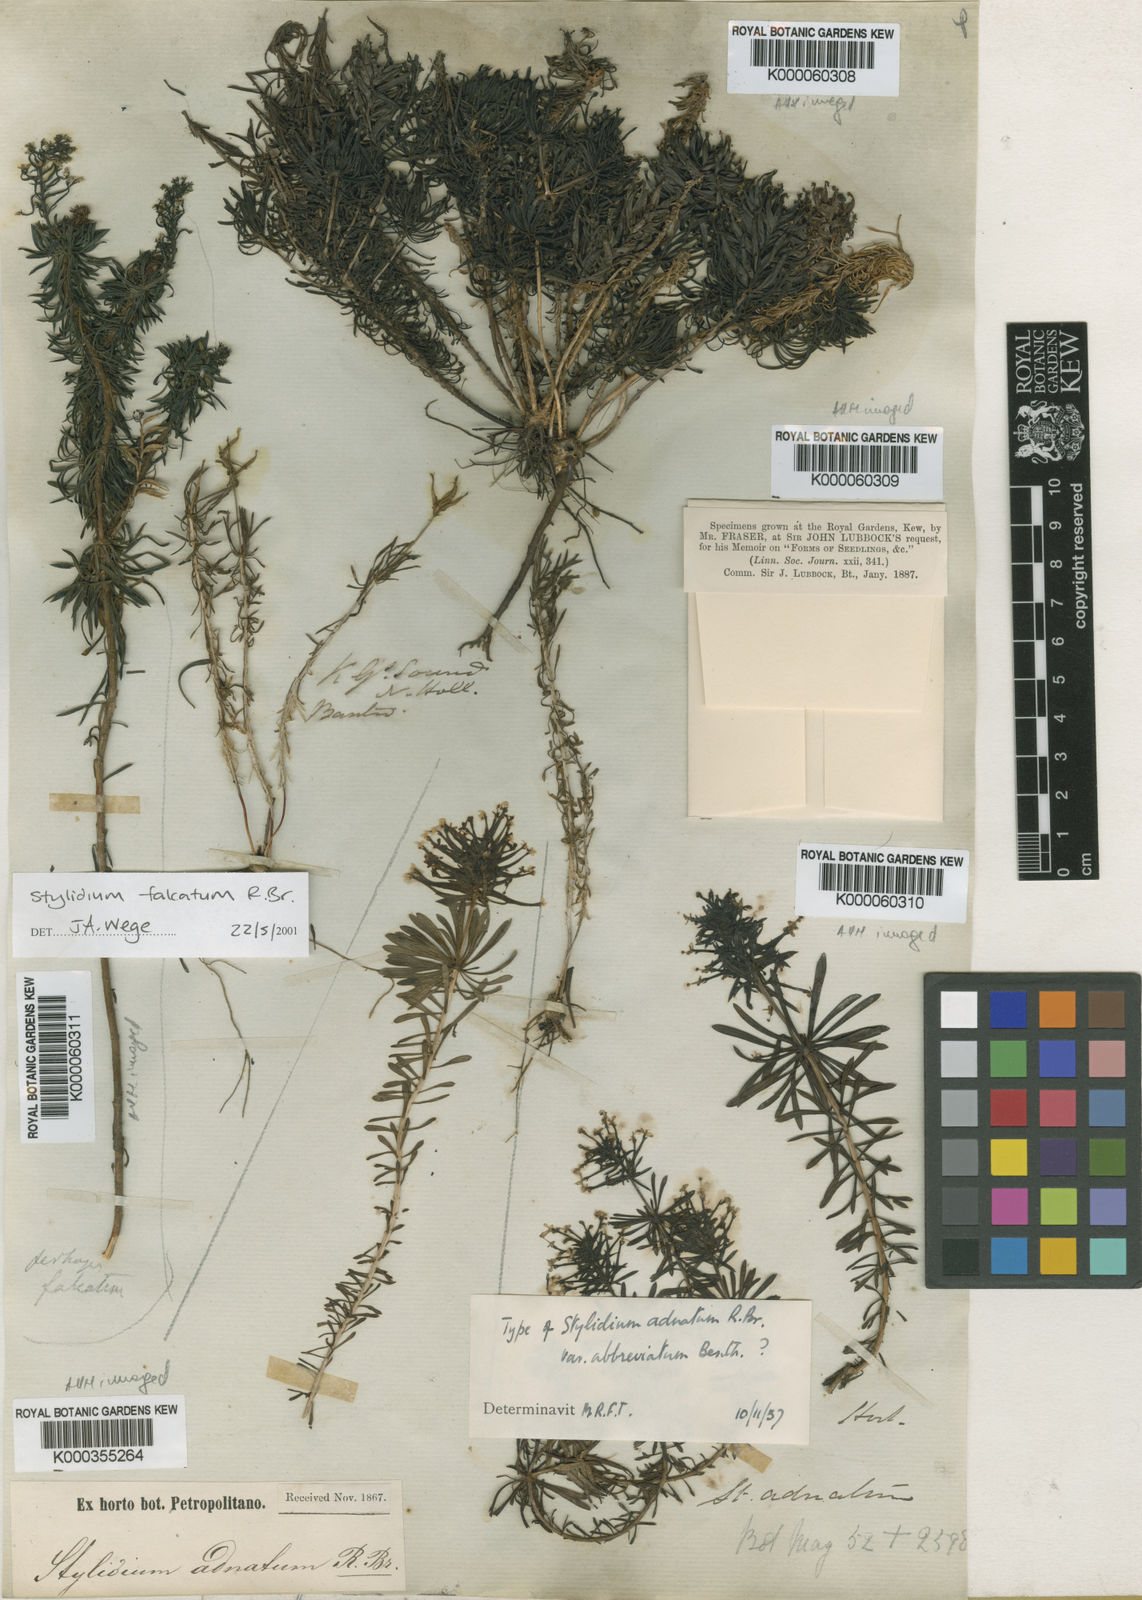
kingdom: Plantae
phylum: Tracheophyta
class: Magnoliopsida
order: Asterales
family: Stylidiaceae
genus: Stylidium
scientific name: Stylidium adnatum
